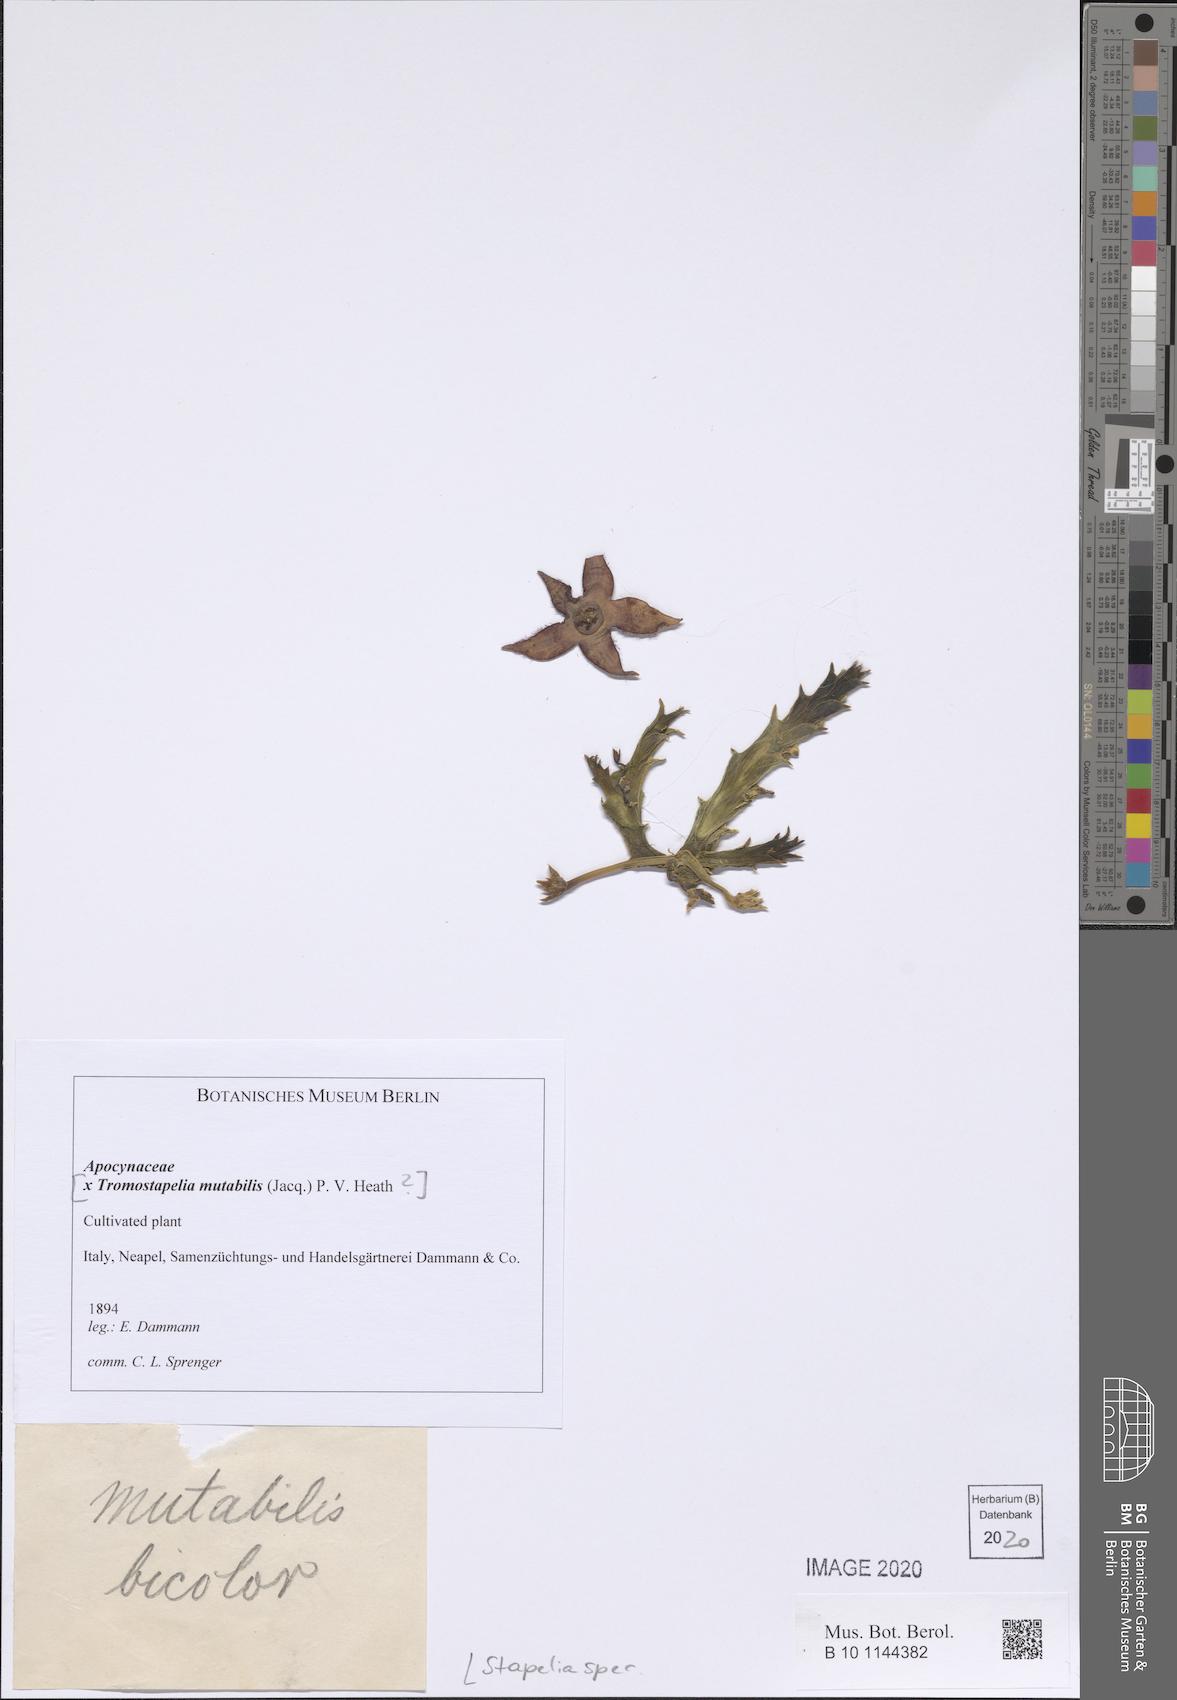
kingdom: Plantae
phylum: Tracheophyta
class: Magnoliopsida
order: Gentianales
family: Apocynaceae
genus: Stapelia
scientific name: Stapelia
